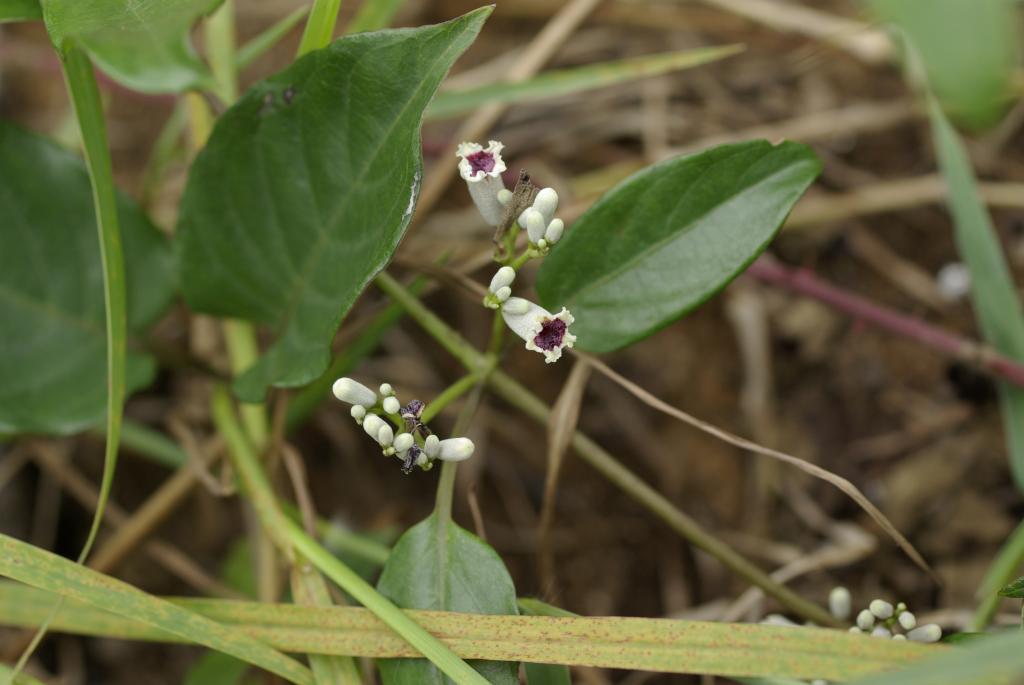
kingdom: Plantae
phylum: Tracheophyta
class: Magnoliopsida
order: Gentianales
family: Rubiaceae
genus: Paederia
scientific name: Paederia foetida
